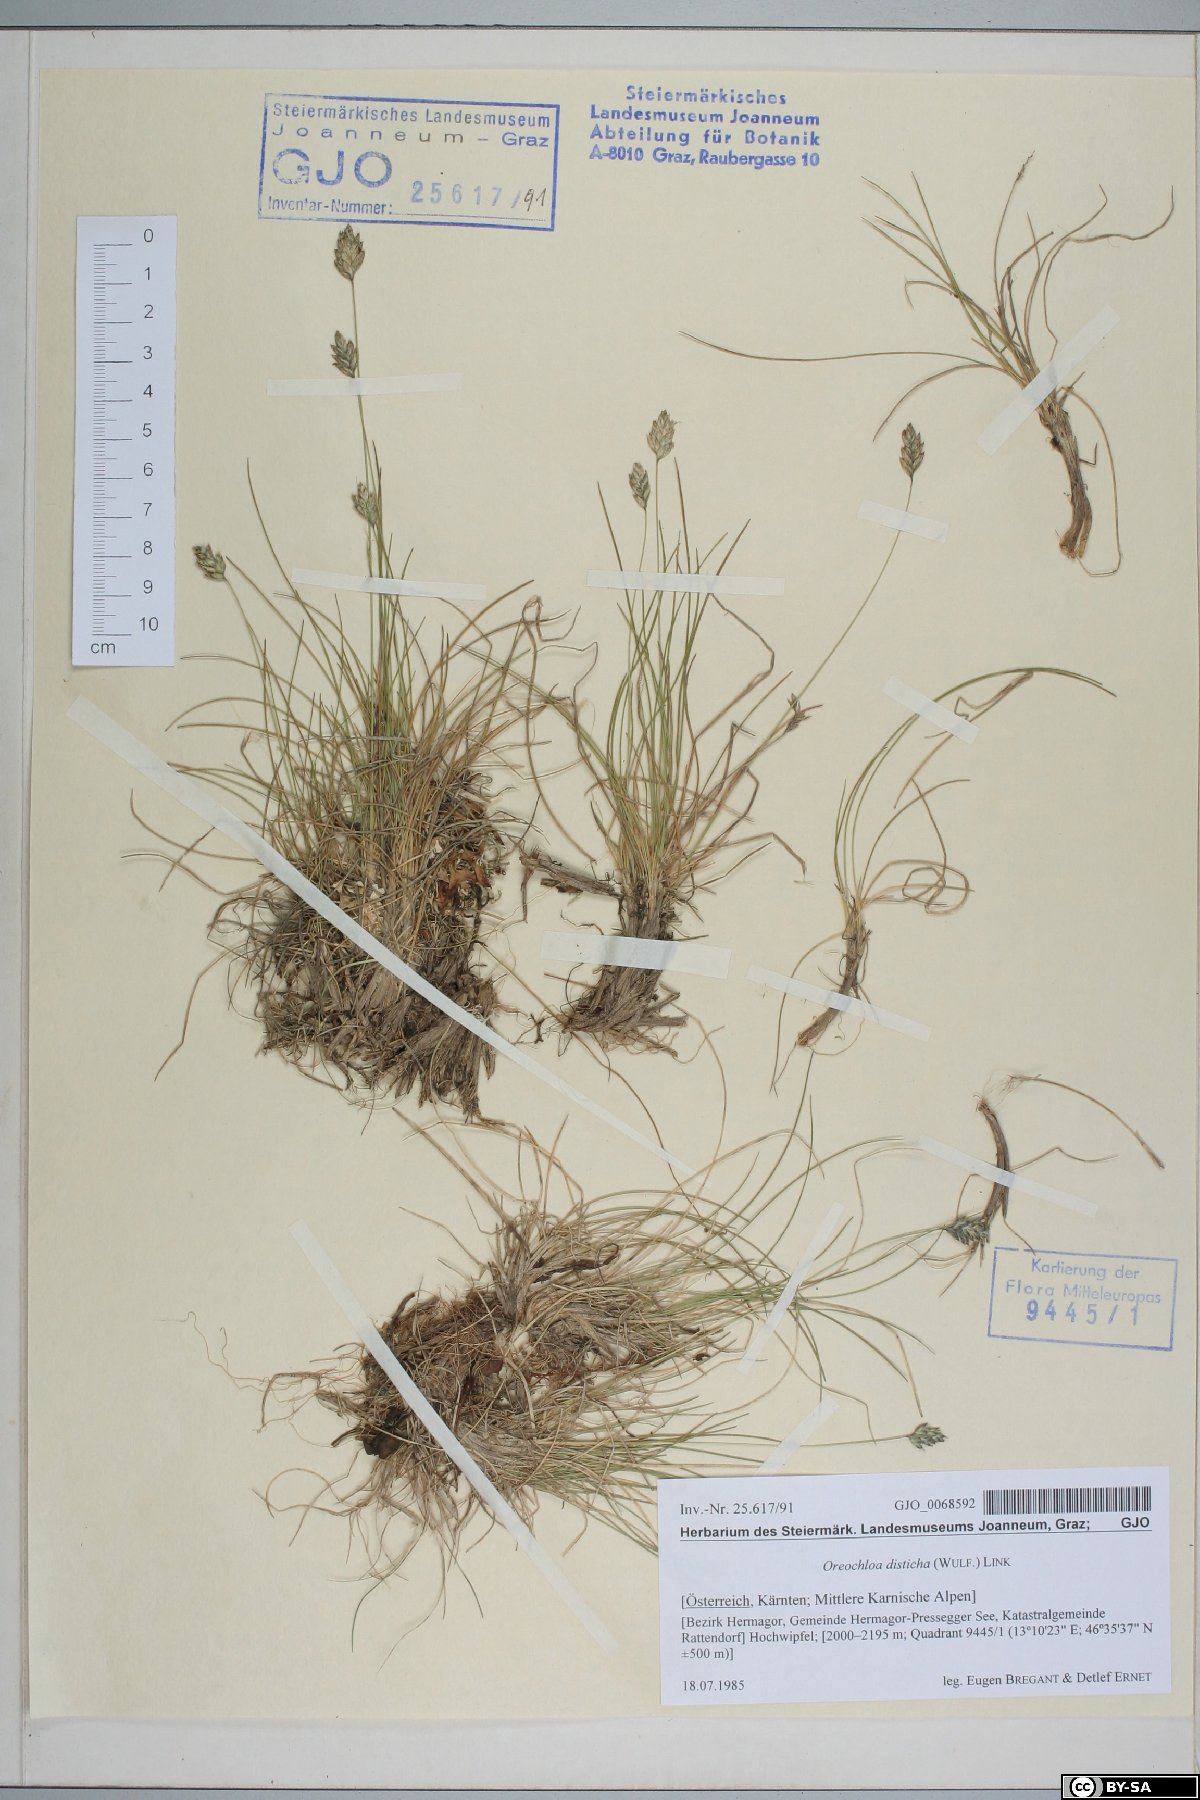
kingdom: Plantae
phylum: Tracheophyta
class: Liliopsida
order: Poales
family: Poaceae
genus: Oreochloa
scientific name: Oreochloa disticha
